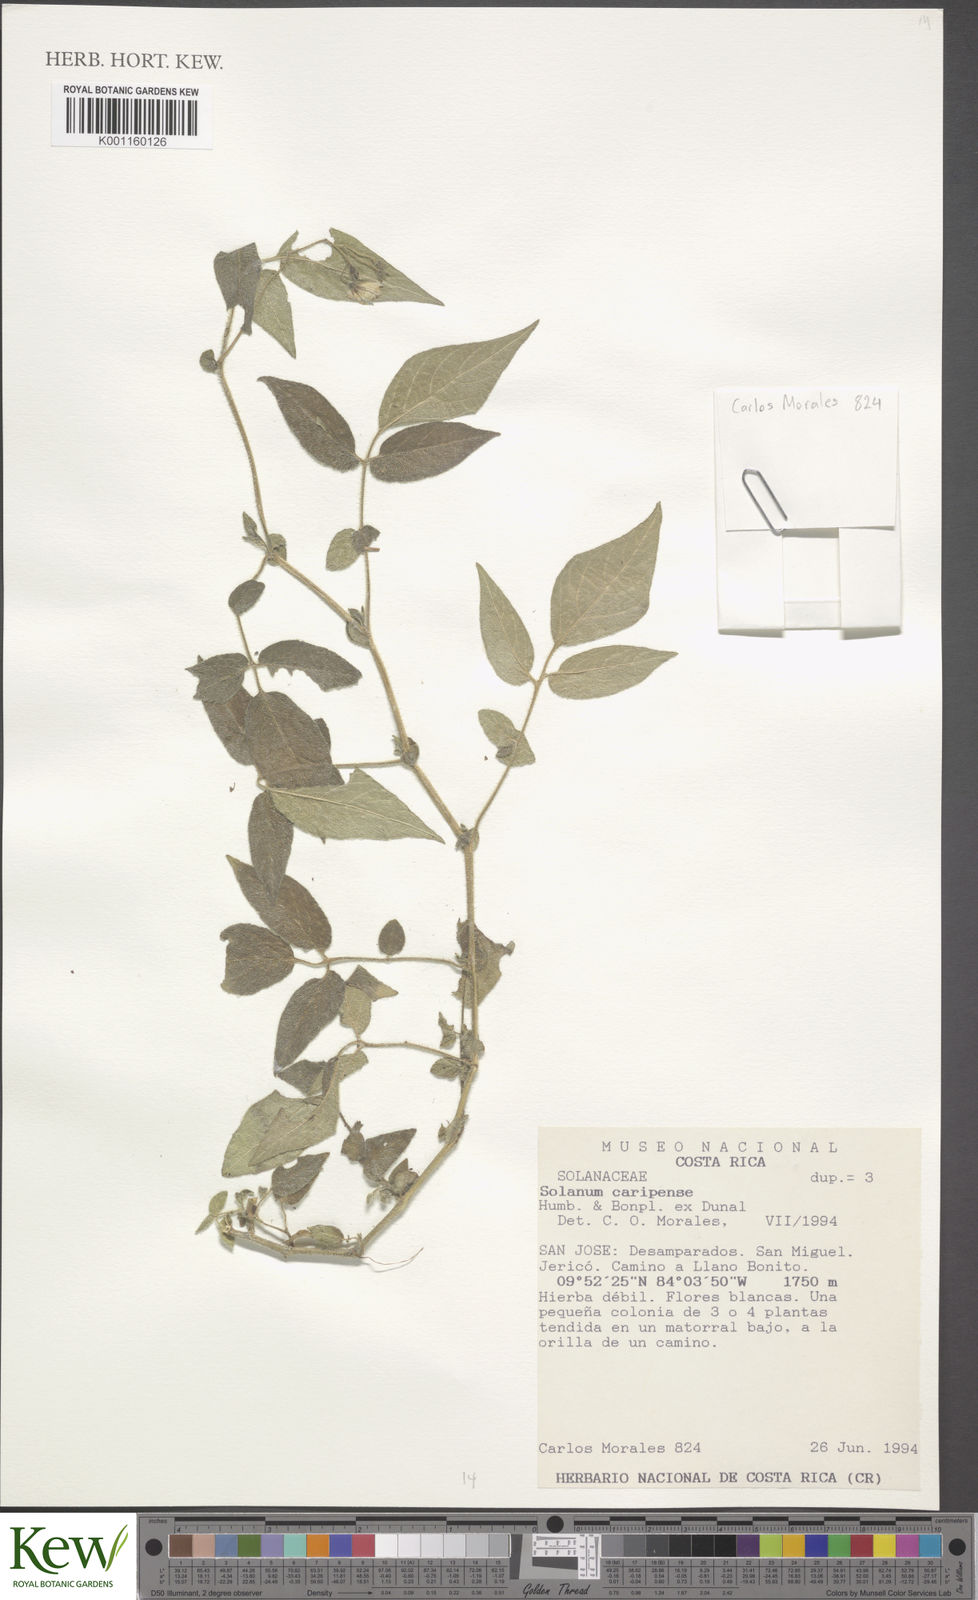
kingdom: Plantae
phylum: Tracheophyta
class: Magnoliopsida
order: Solanales
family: Solanaceae
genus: Solanum
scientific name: Solanum caripense
